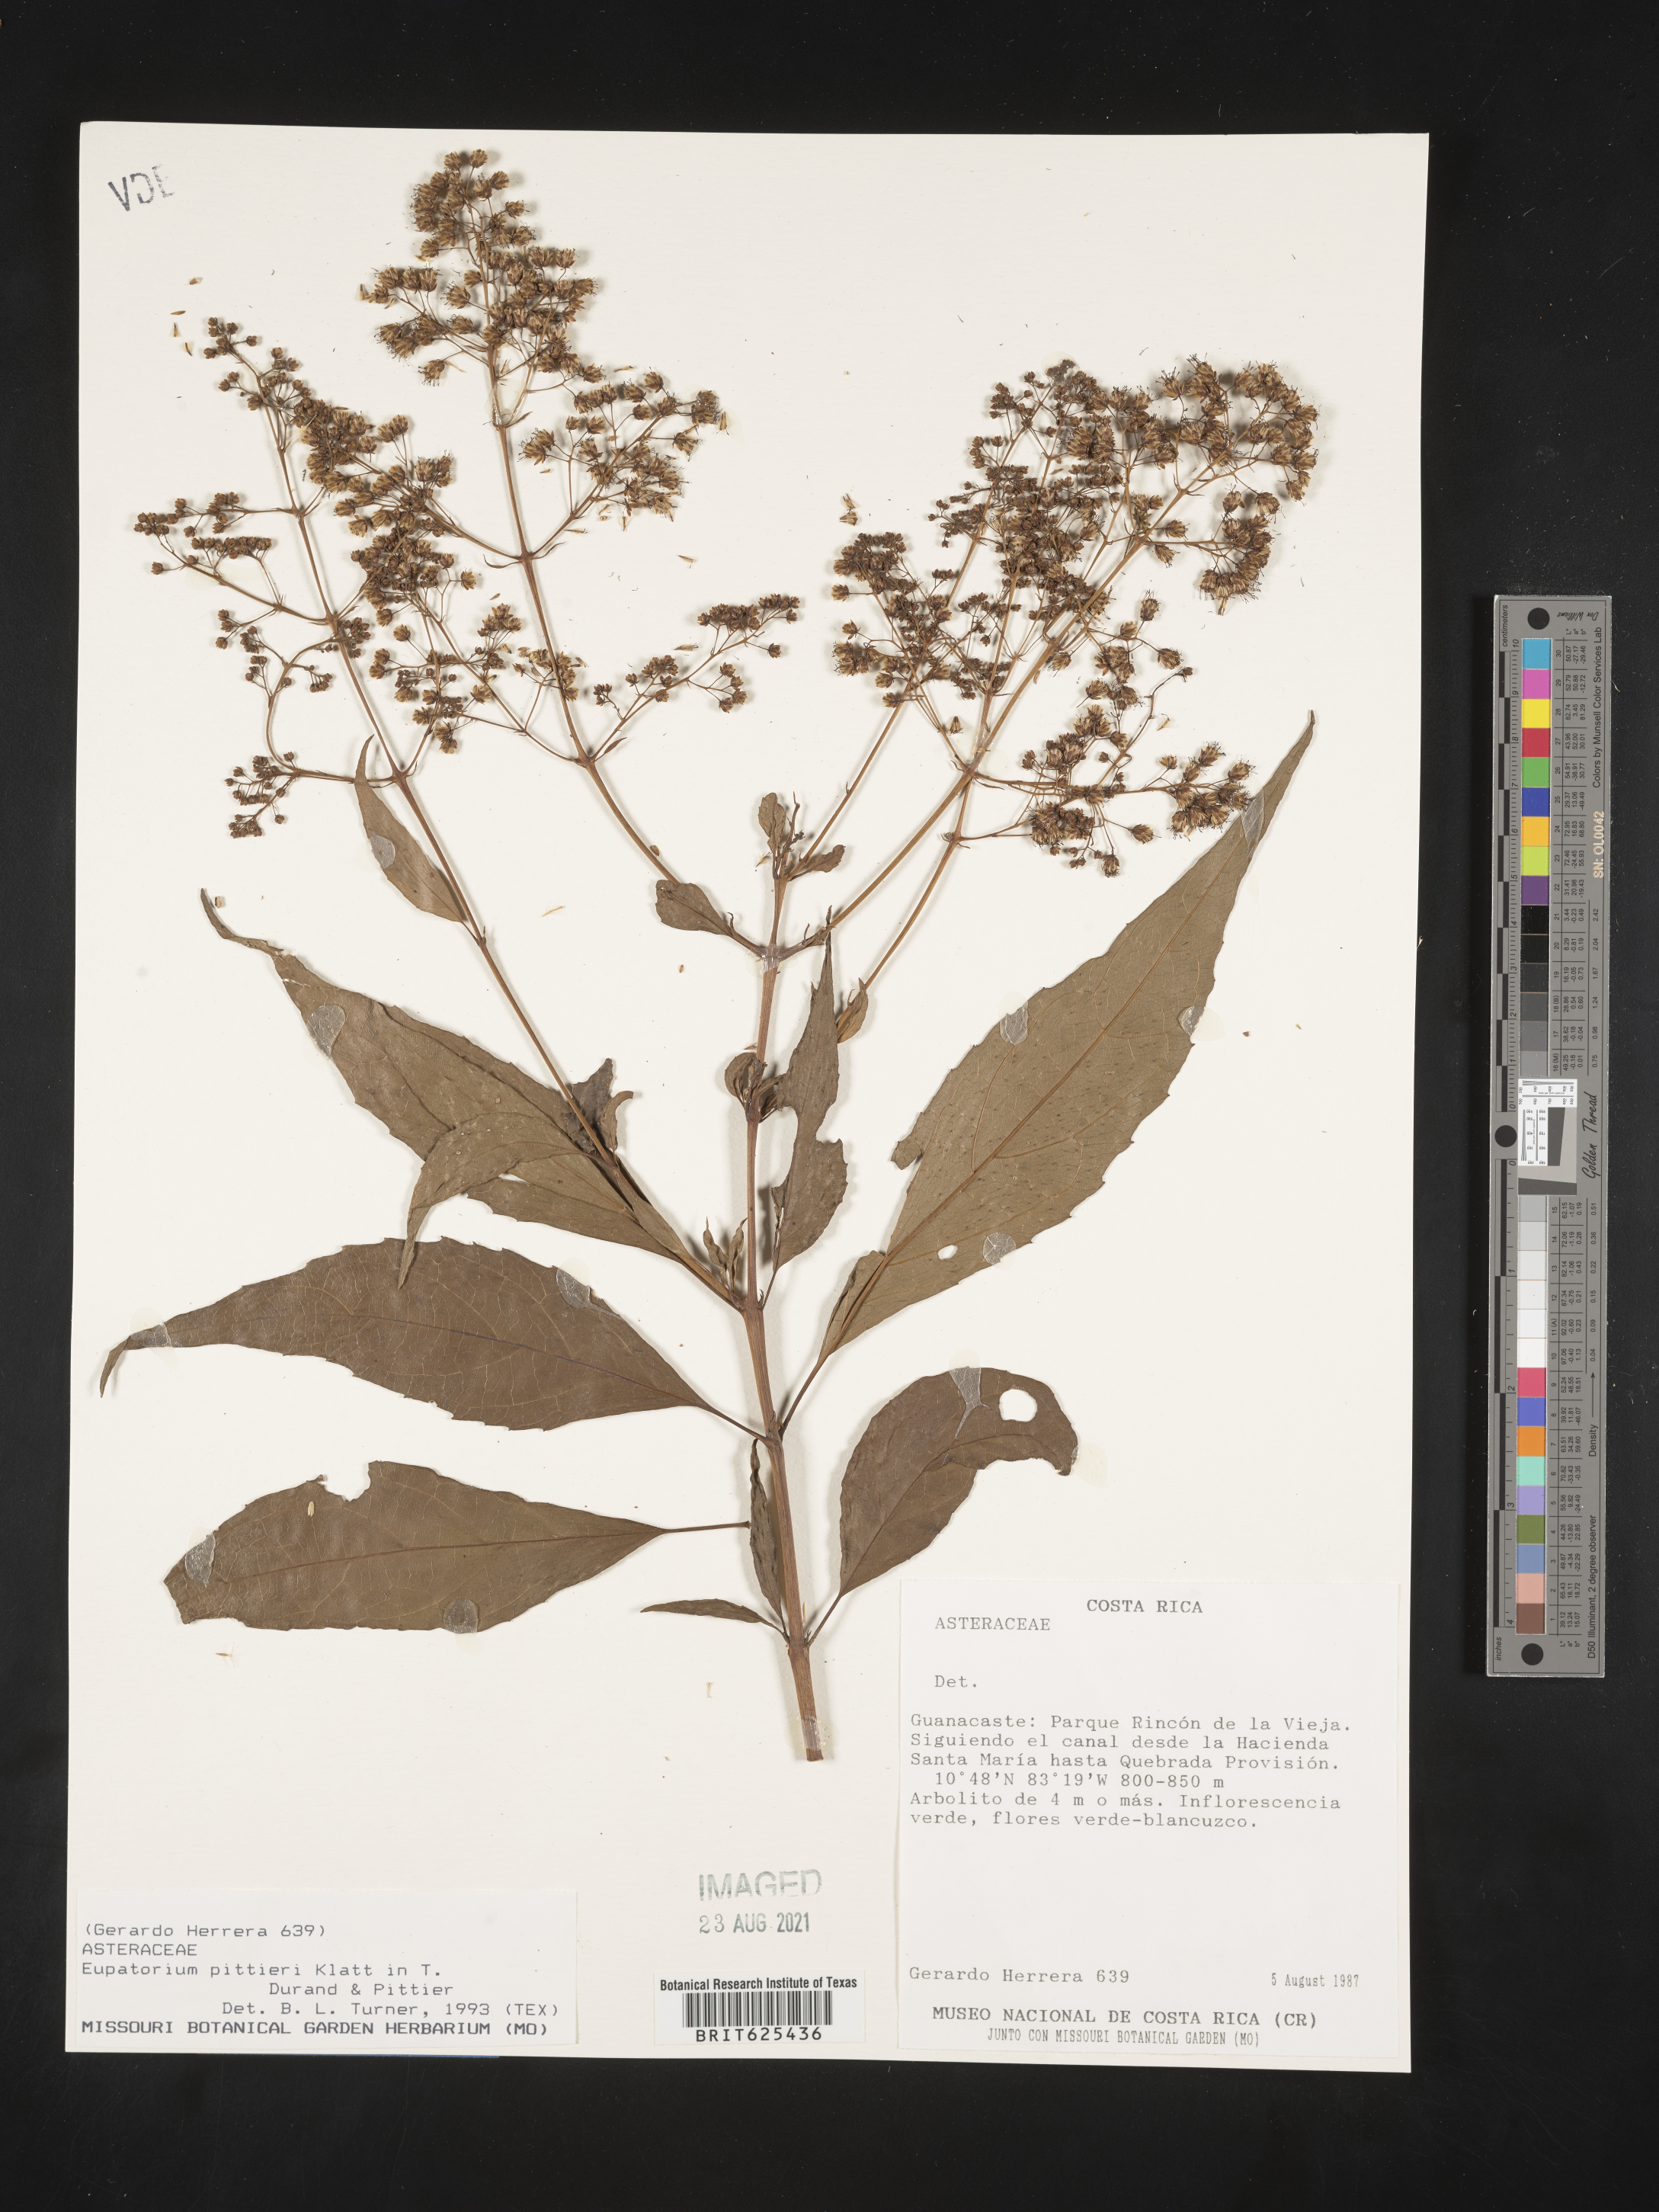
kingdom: Plantae
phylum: Tracheophyta
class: Magnoliopsida
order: Asterales
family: Asteraceae
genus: Koanophyllon
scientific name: Koanophyllon pittieri
